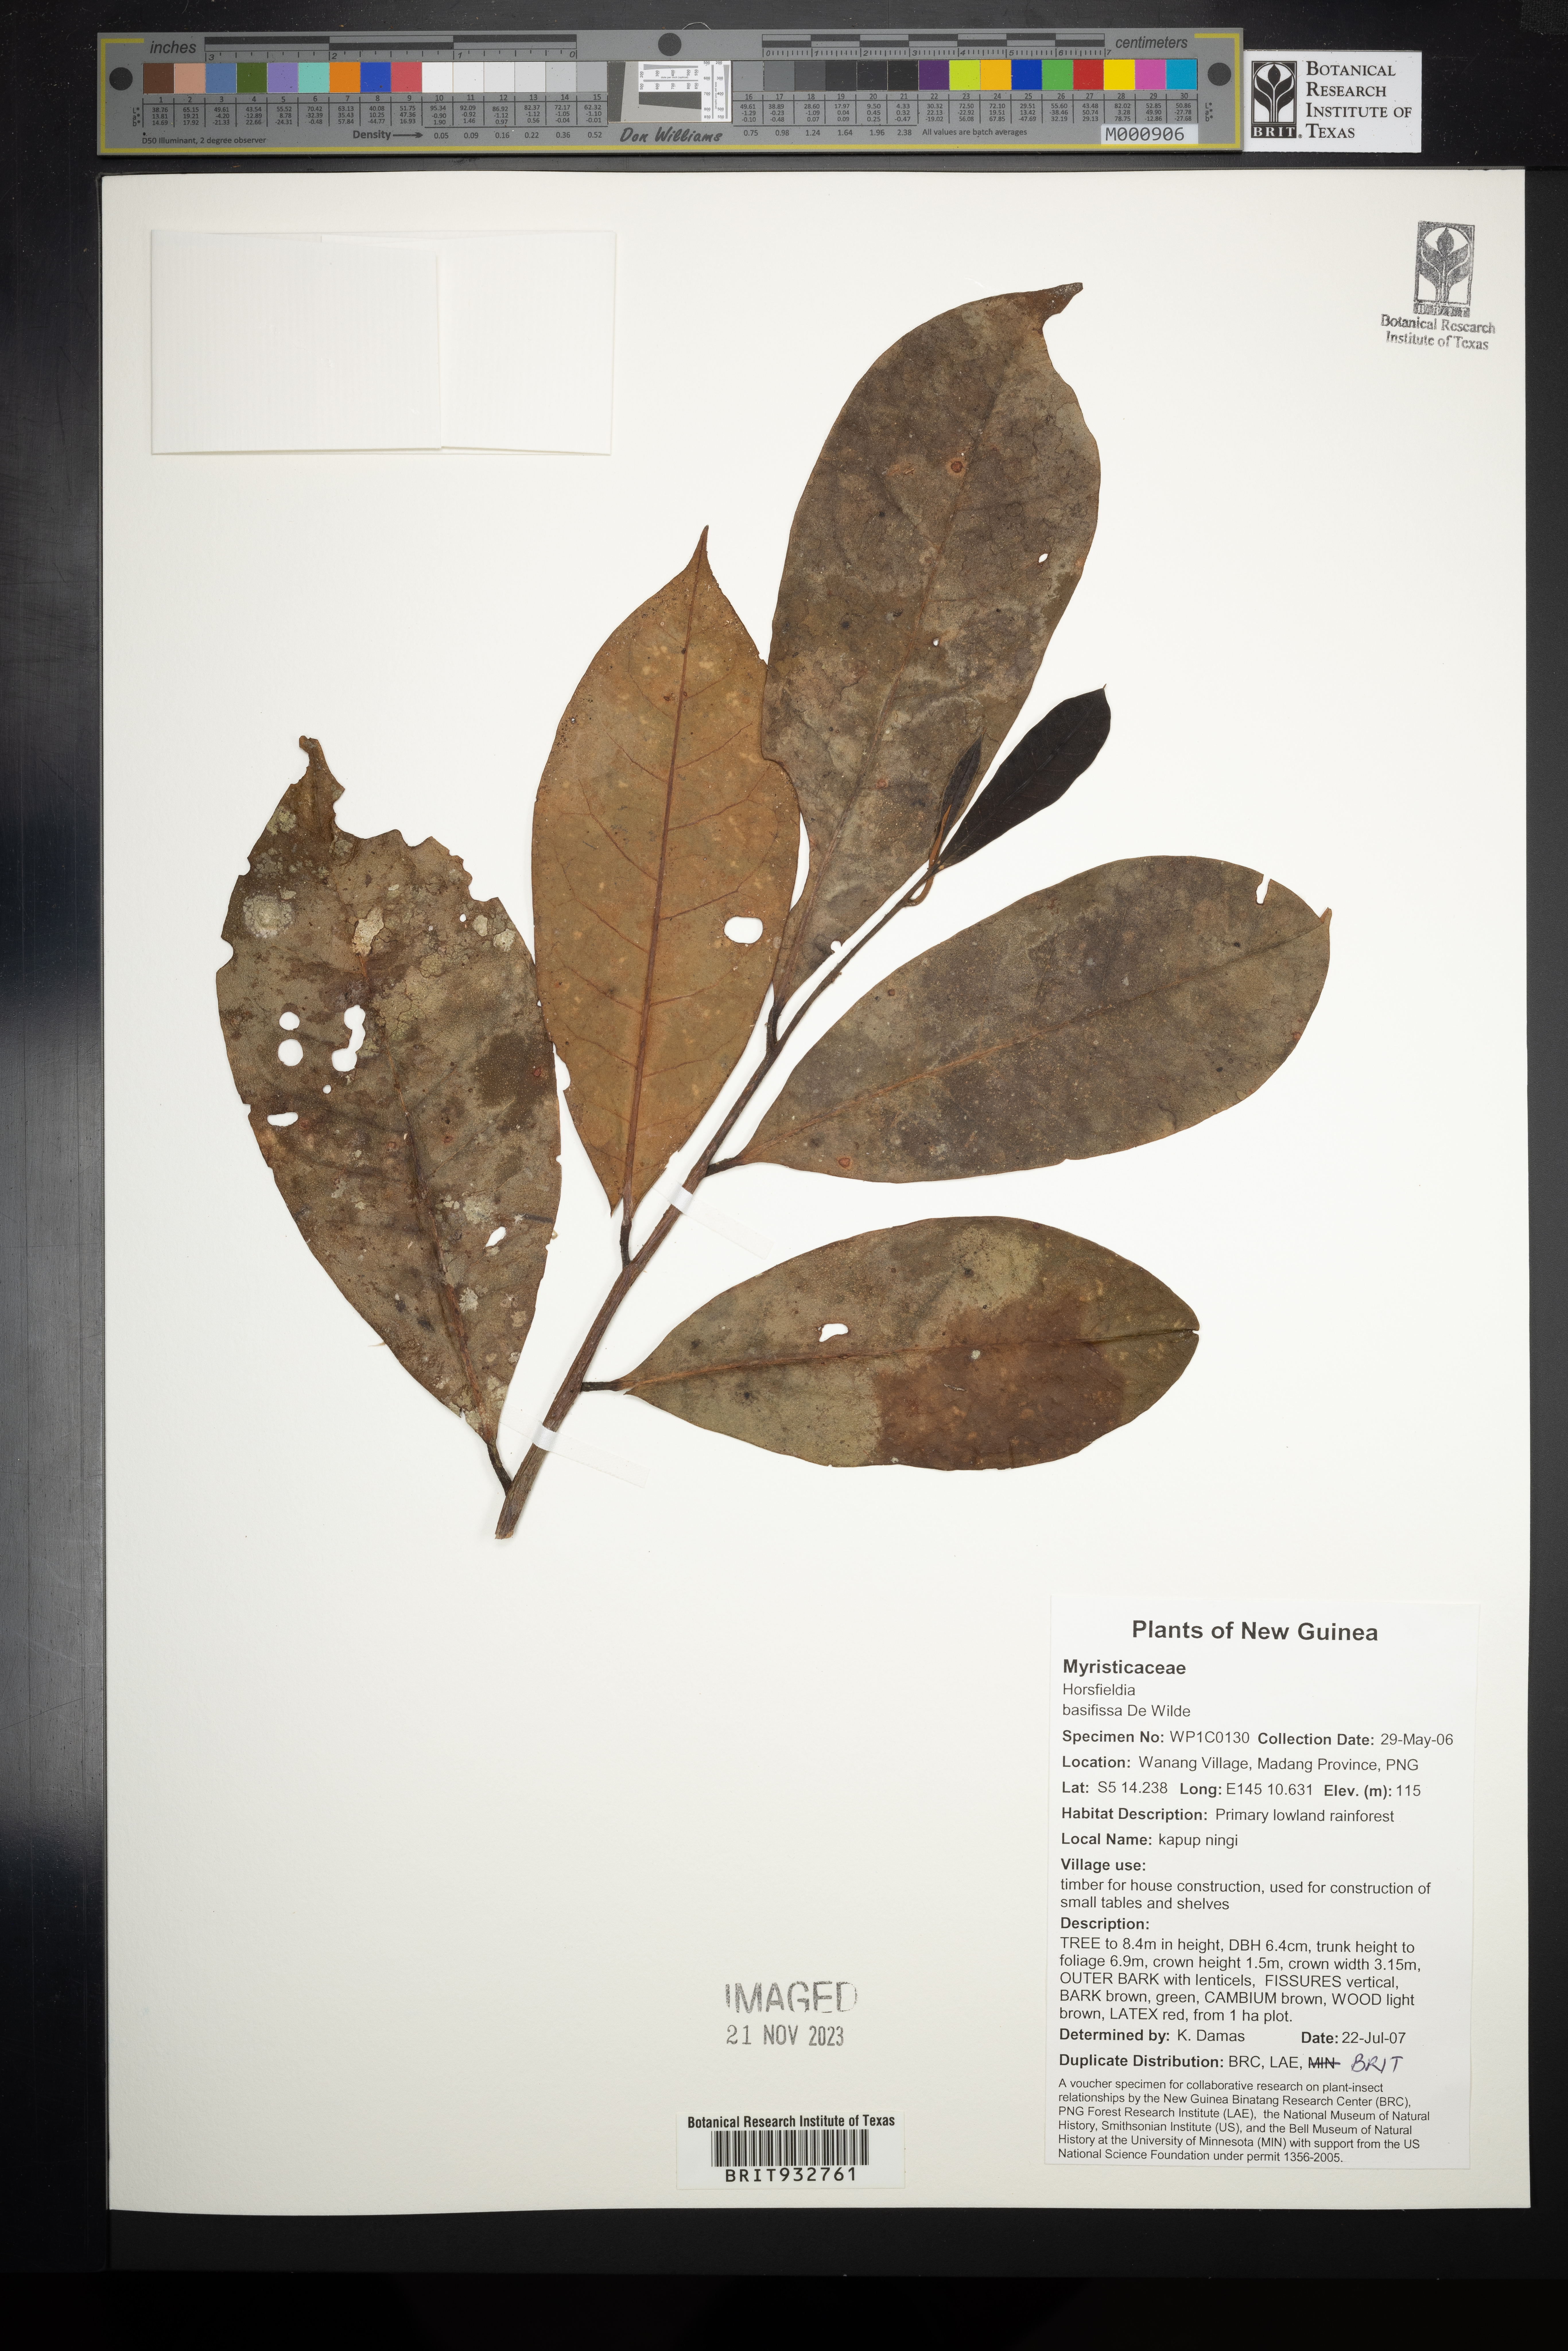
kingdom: Plantae
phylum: Tracheophyta
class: Magnoliopsida
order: Magnoliales
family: Myristicaceae
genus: Horsfieldia
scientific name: Horsfieldia
